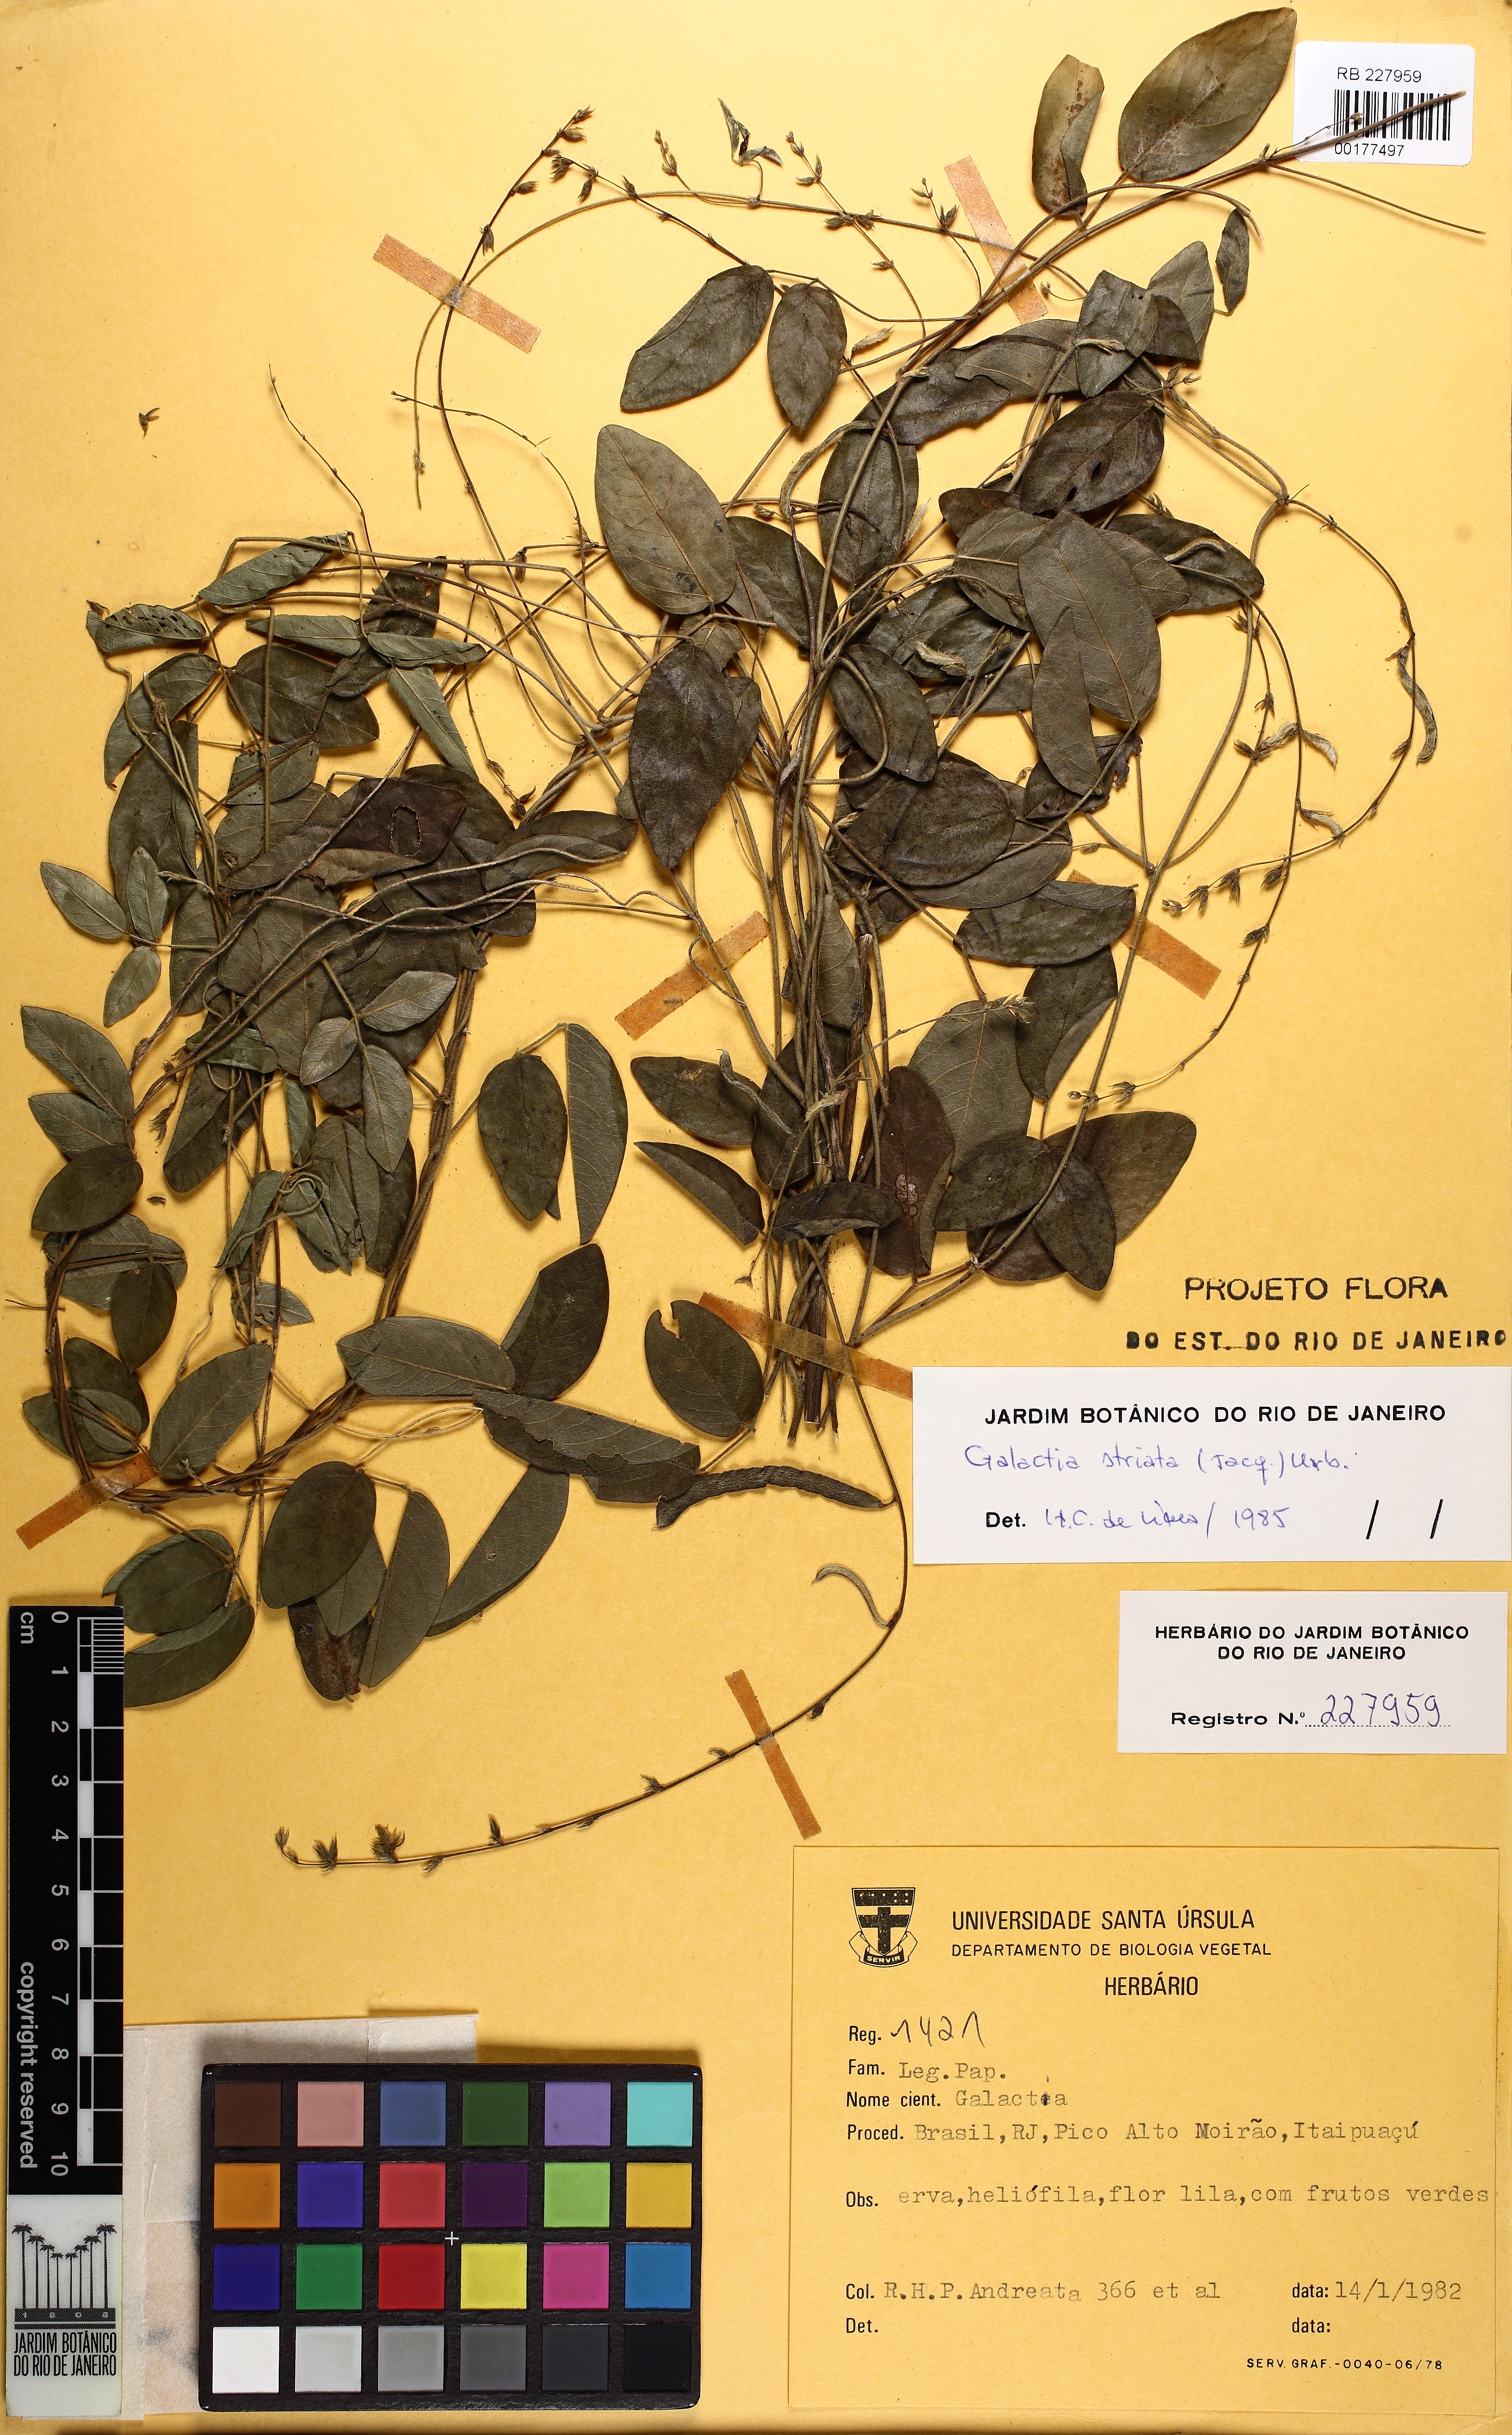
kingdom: Plantae
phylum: Tracheophyta
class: Magnoliopsida
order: Fabales
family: Fabaceae
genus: Galactia
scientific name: Galactia striata
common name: Florida hammock milkpea
